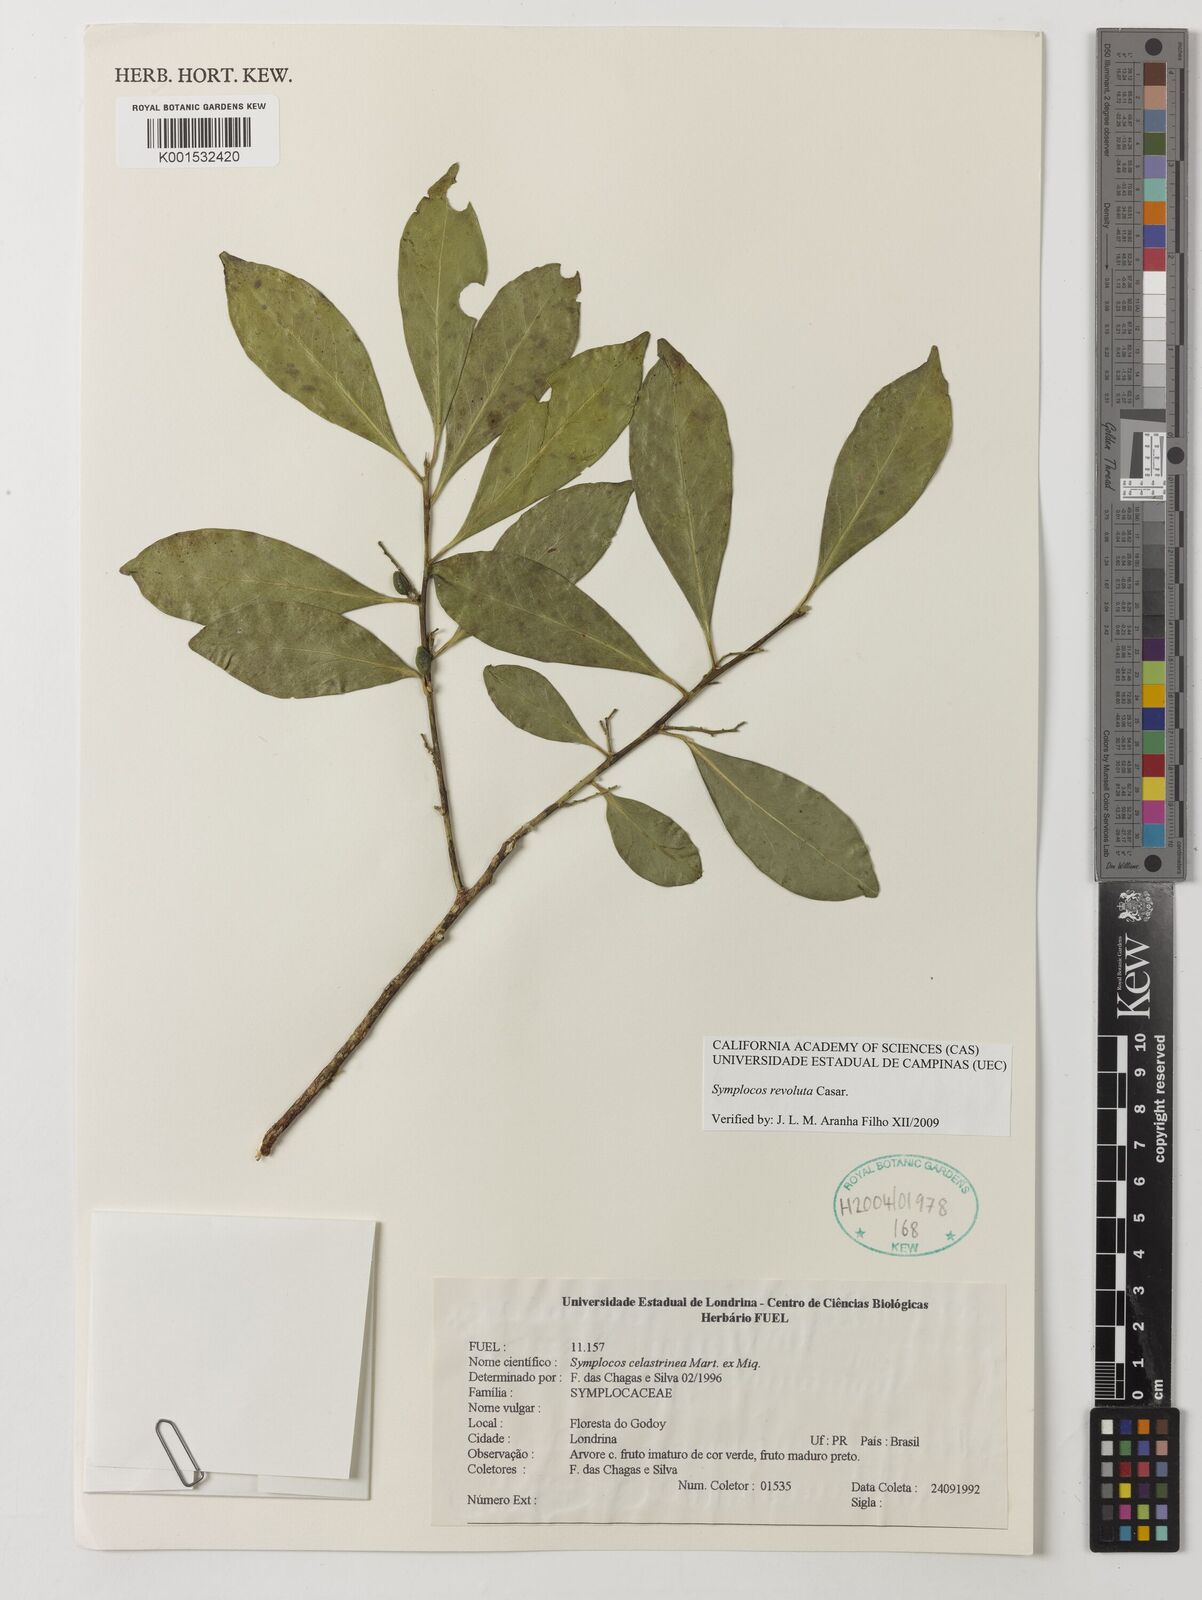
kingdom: Plantae
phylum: Tracheophyta
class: Magnoliopsida
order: Ericales
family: Symplocaceae
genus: Symplocos
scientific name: Symplocos revoluta
